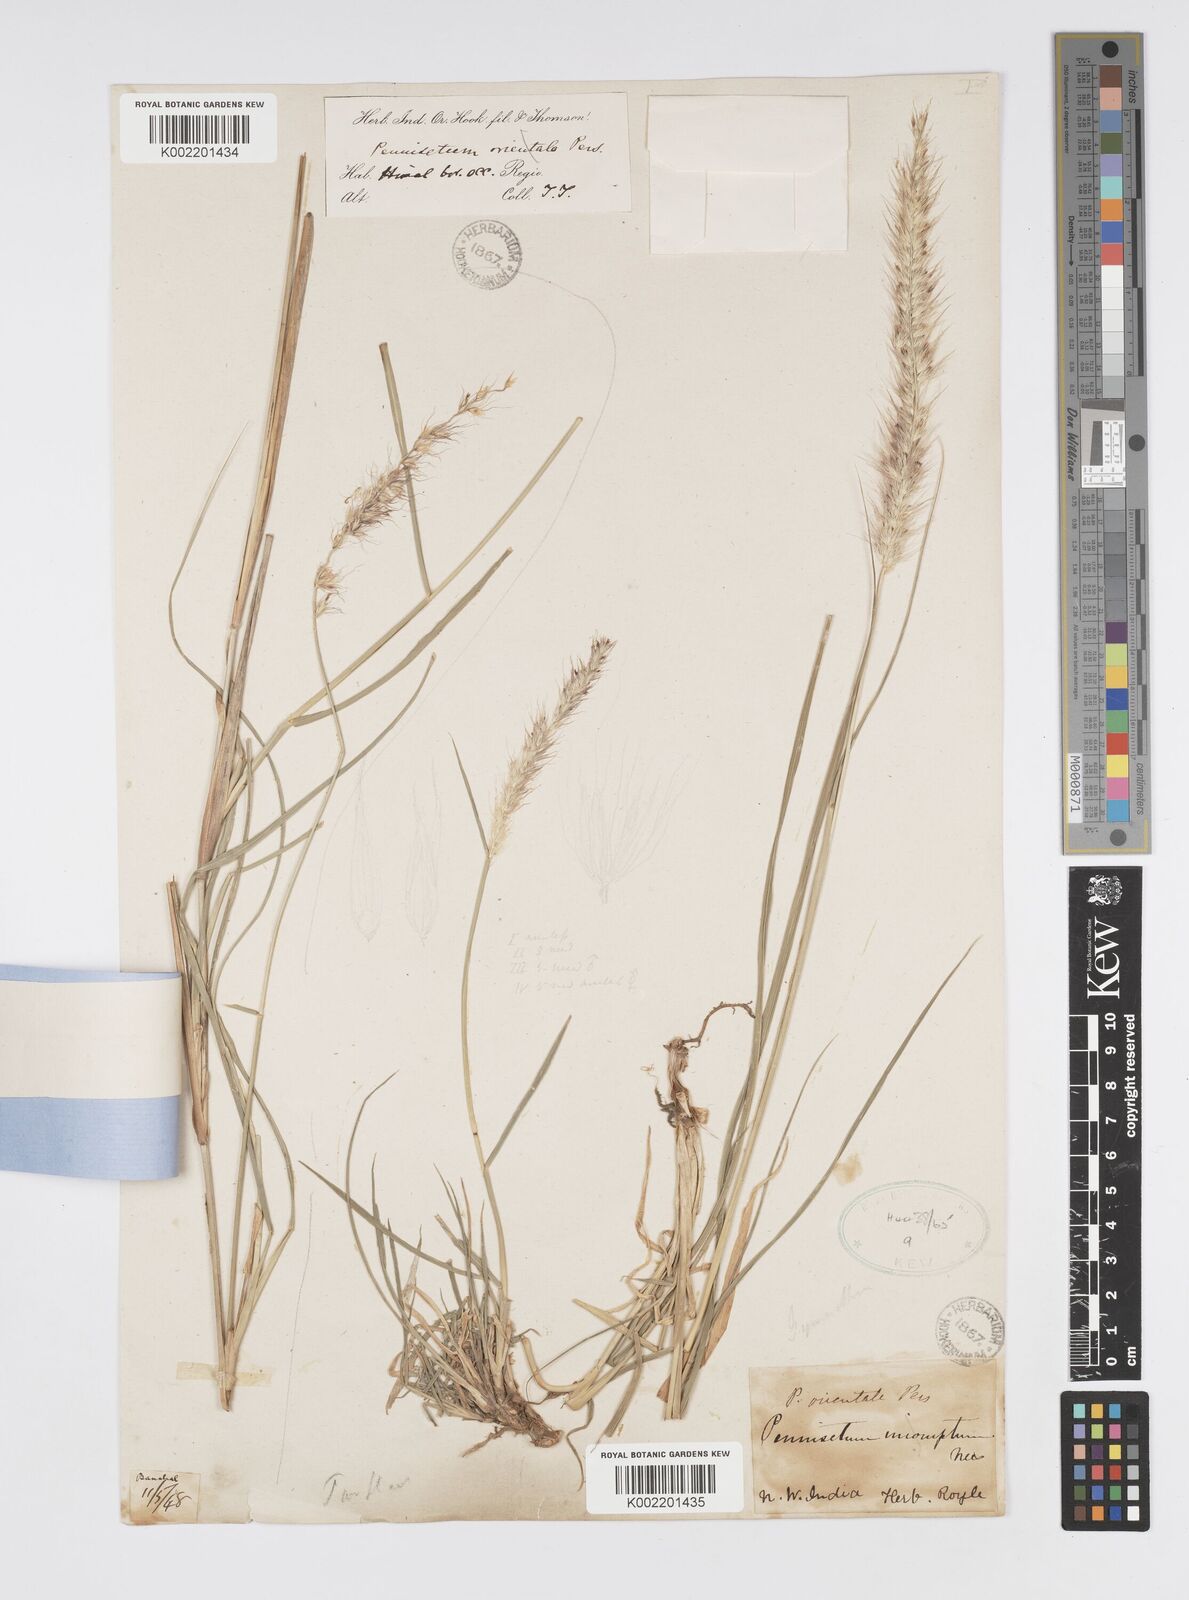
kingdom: Plantae
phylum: Tracheophyta
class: Liliopsida
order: Poales
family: Poaceae
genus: Cenchrus
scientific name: Cenchrus flaccidus
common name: Flaccid grass
